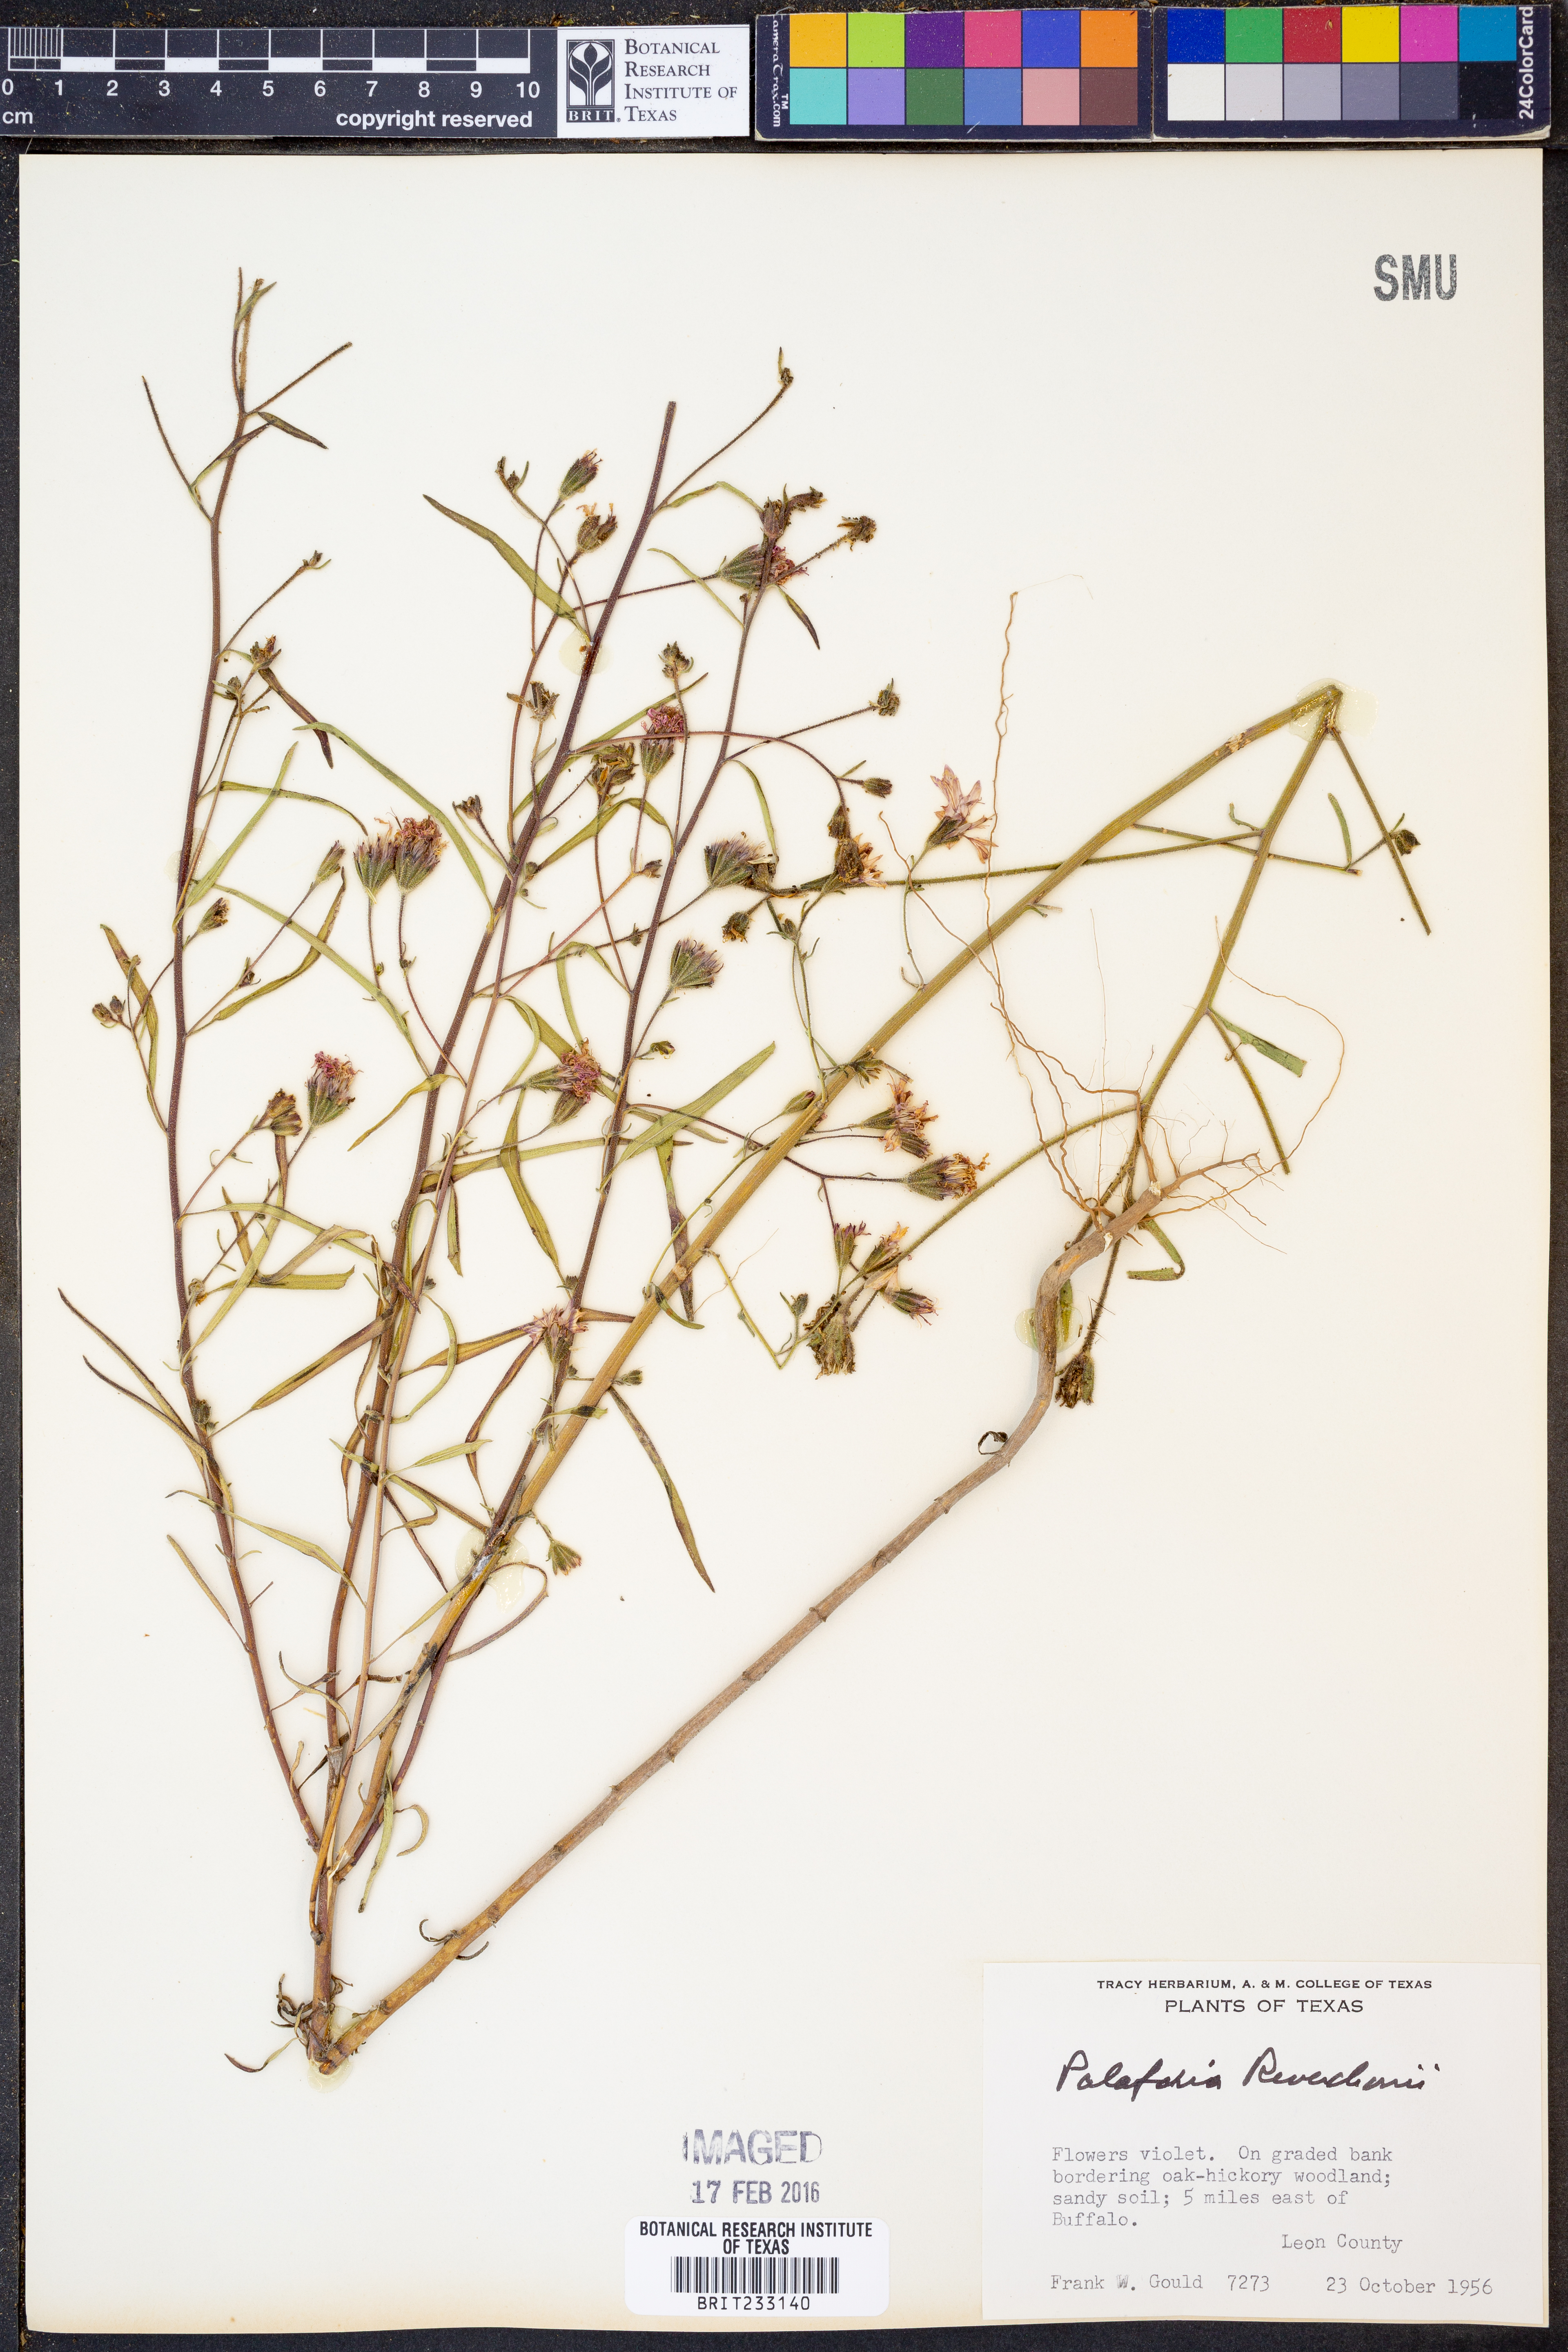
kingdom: Plantae
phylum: Tracheophyta
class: Magnoliopsida
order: Asterales
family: Asteraceae
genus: Palafoxia
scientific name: Palafoxia reverchonii
